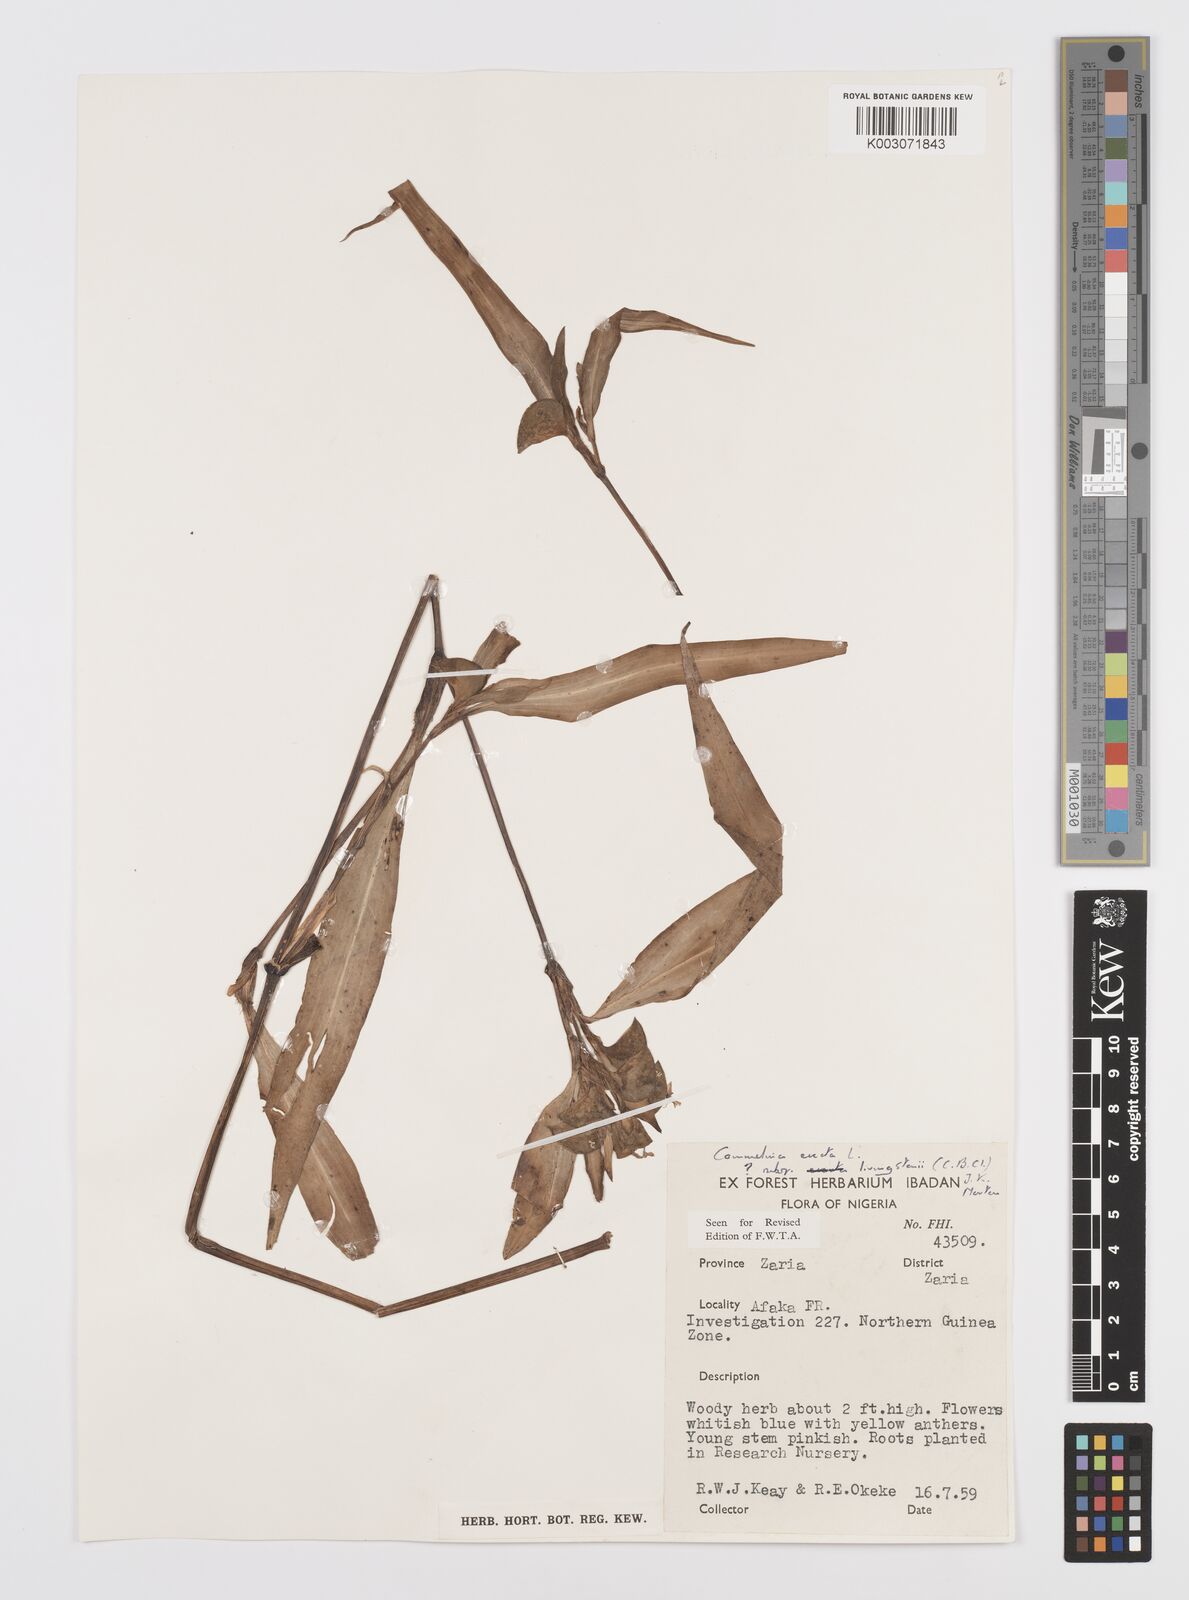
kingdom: Plantae
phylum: Tracheophyta
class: Liliopsida
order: Commelinales
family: Commelinaceae
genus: Commelina
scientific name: Commelina erecta
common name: Blousel blommetjie
